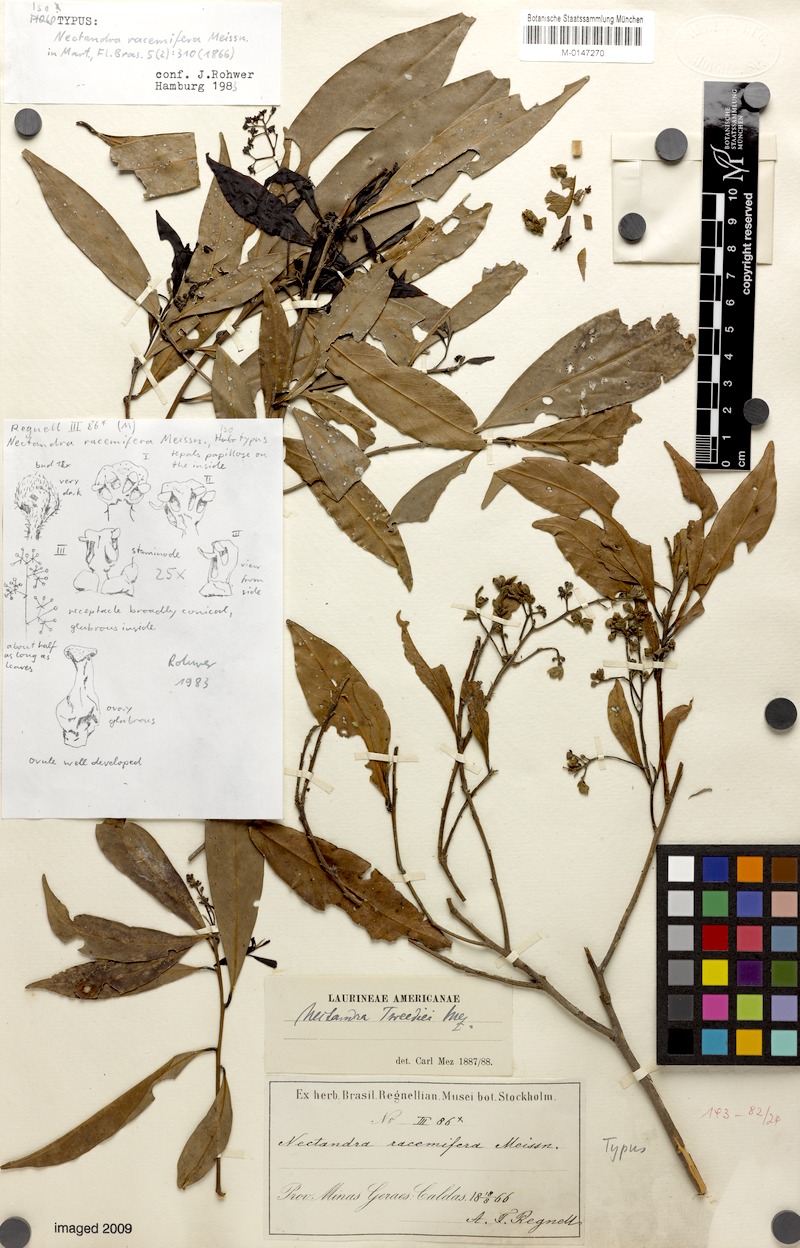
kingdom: Plantae
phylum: Tracheophyta
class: Magnoliopsida
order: Laurales
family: Lauraceae
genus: Nectandra
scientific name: Nectandra megapotamica
